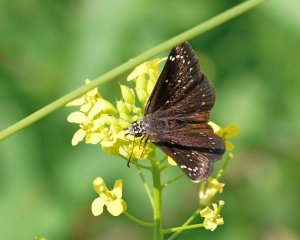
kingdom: Animalia
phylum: Arthropoda
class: Insecta
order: Lepidoptera
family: Hesperiidae
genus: Pholisora
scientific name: Pholisora catullus
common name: Common Sootywing
